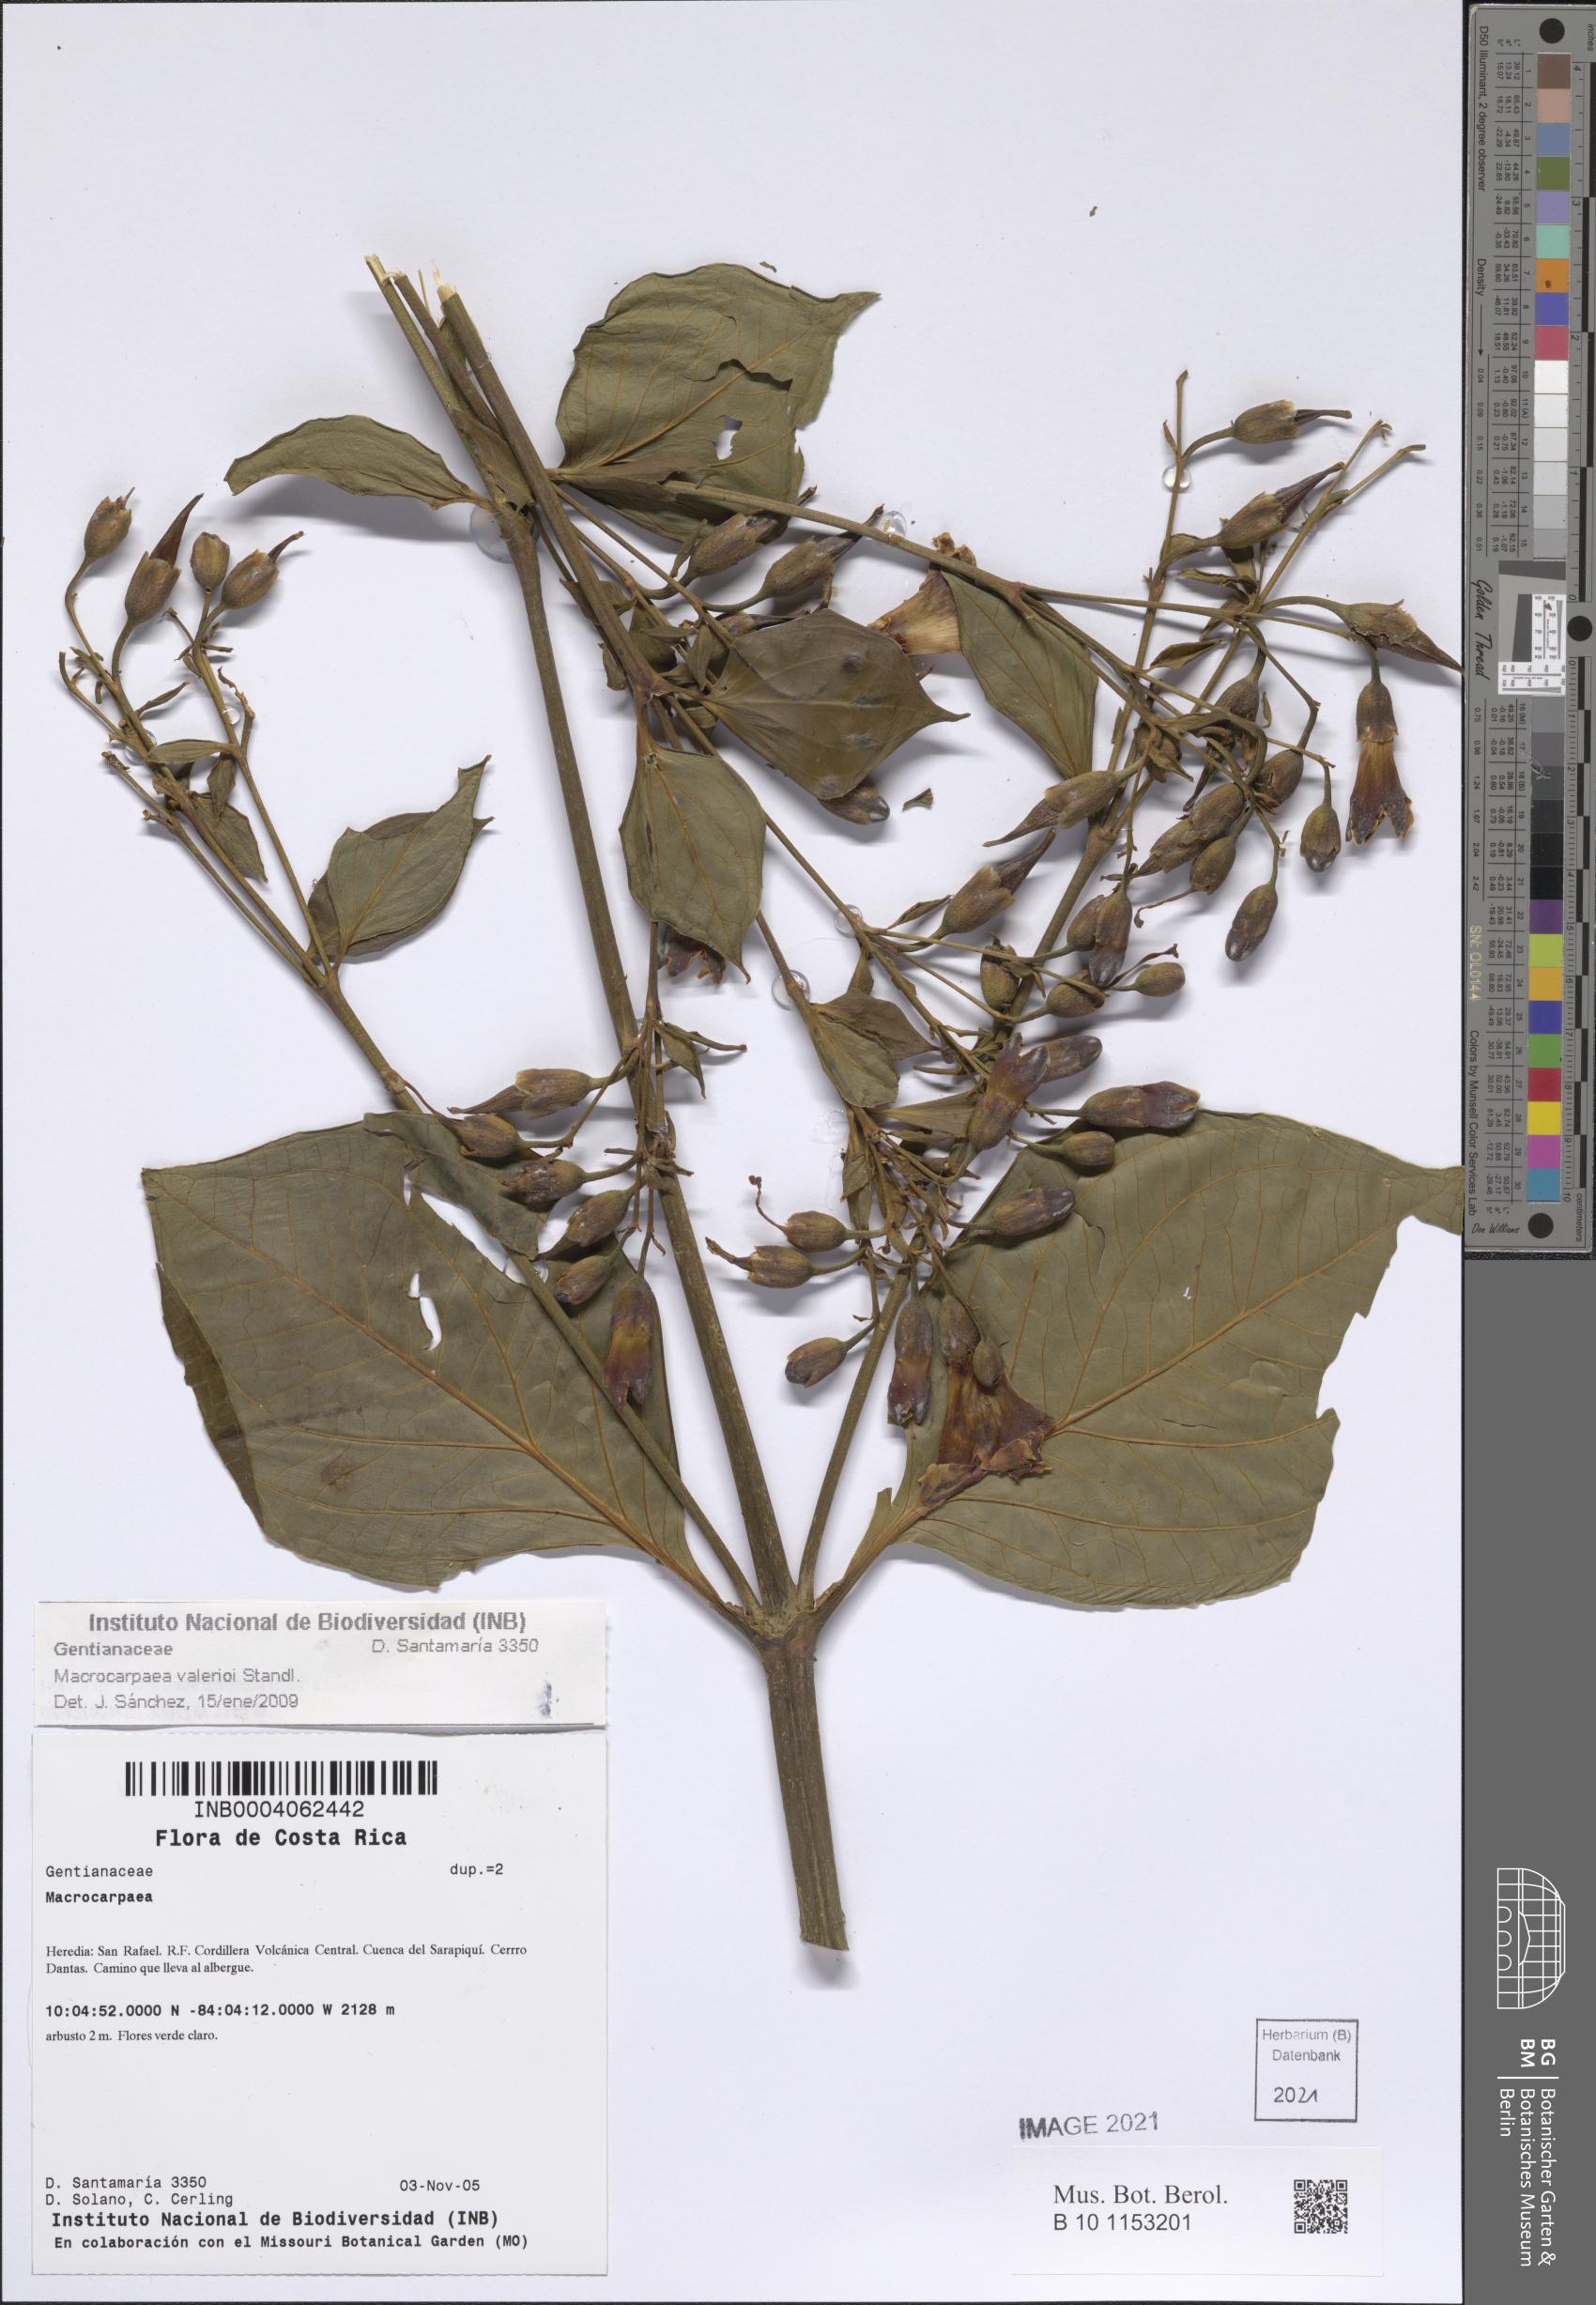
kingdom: Plantae
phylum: Tracheophyta
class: Magnoliopsida
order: Gentianales
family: Gentianaceae
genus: Macrocarpaea
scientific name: Macrocarpaea valerioi
